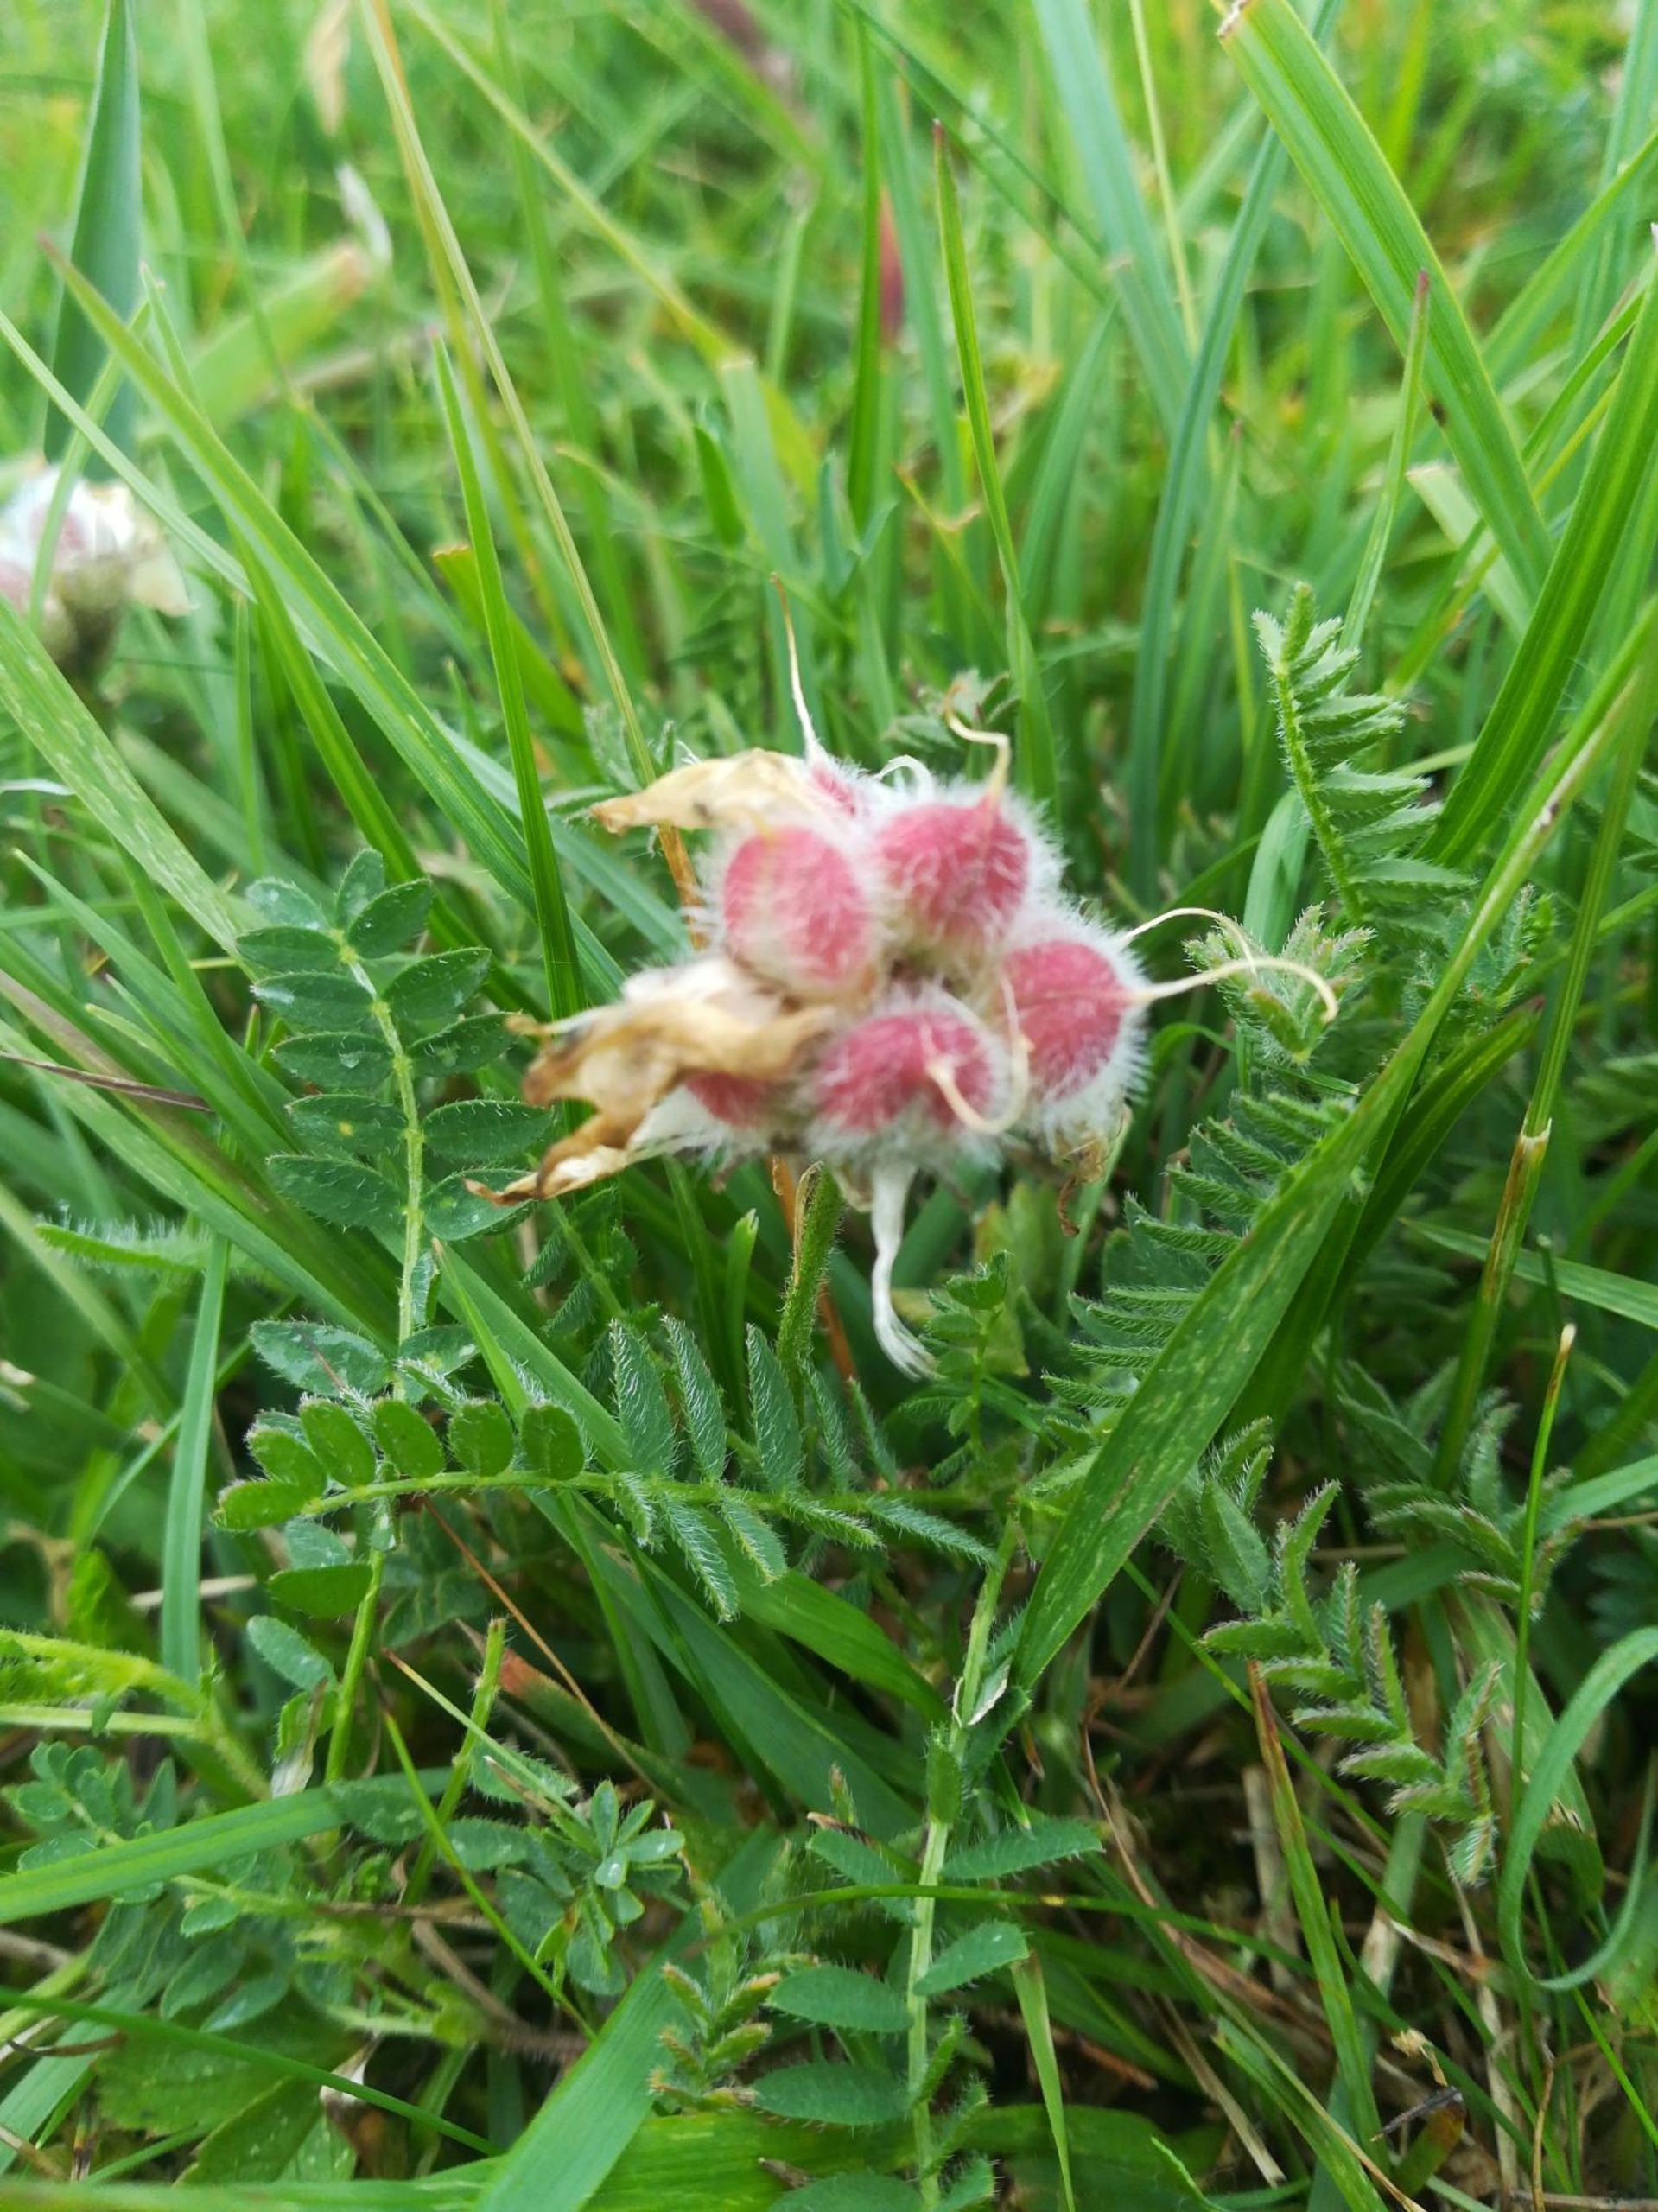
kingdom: Plantae
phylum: Tracheophyta
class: Magnoliopsida
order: Fabales
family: Fabaceae
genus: Astragalus
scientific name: Astragalus danicus
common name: Dansk astragel
